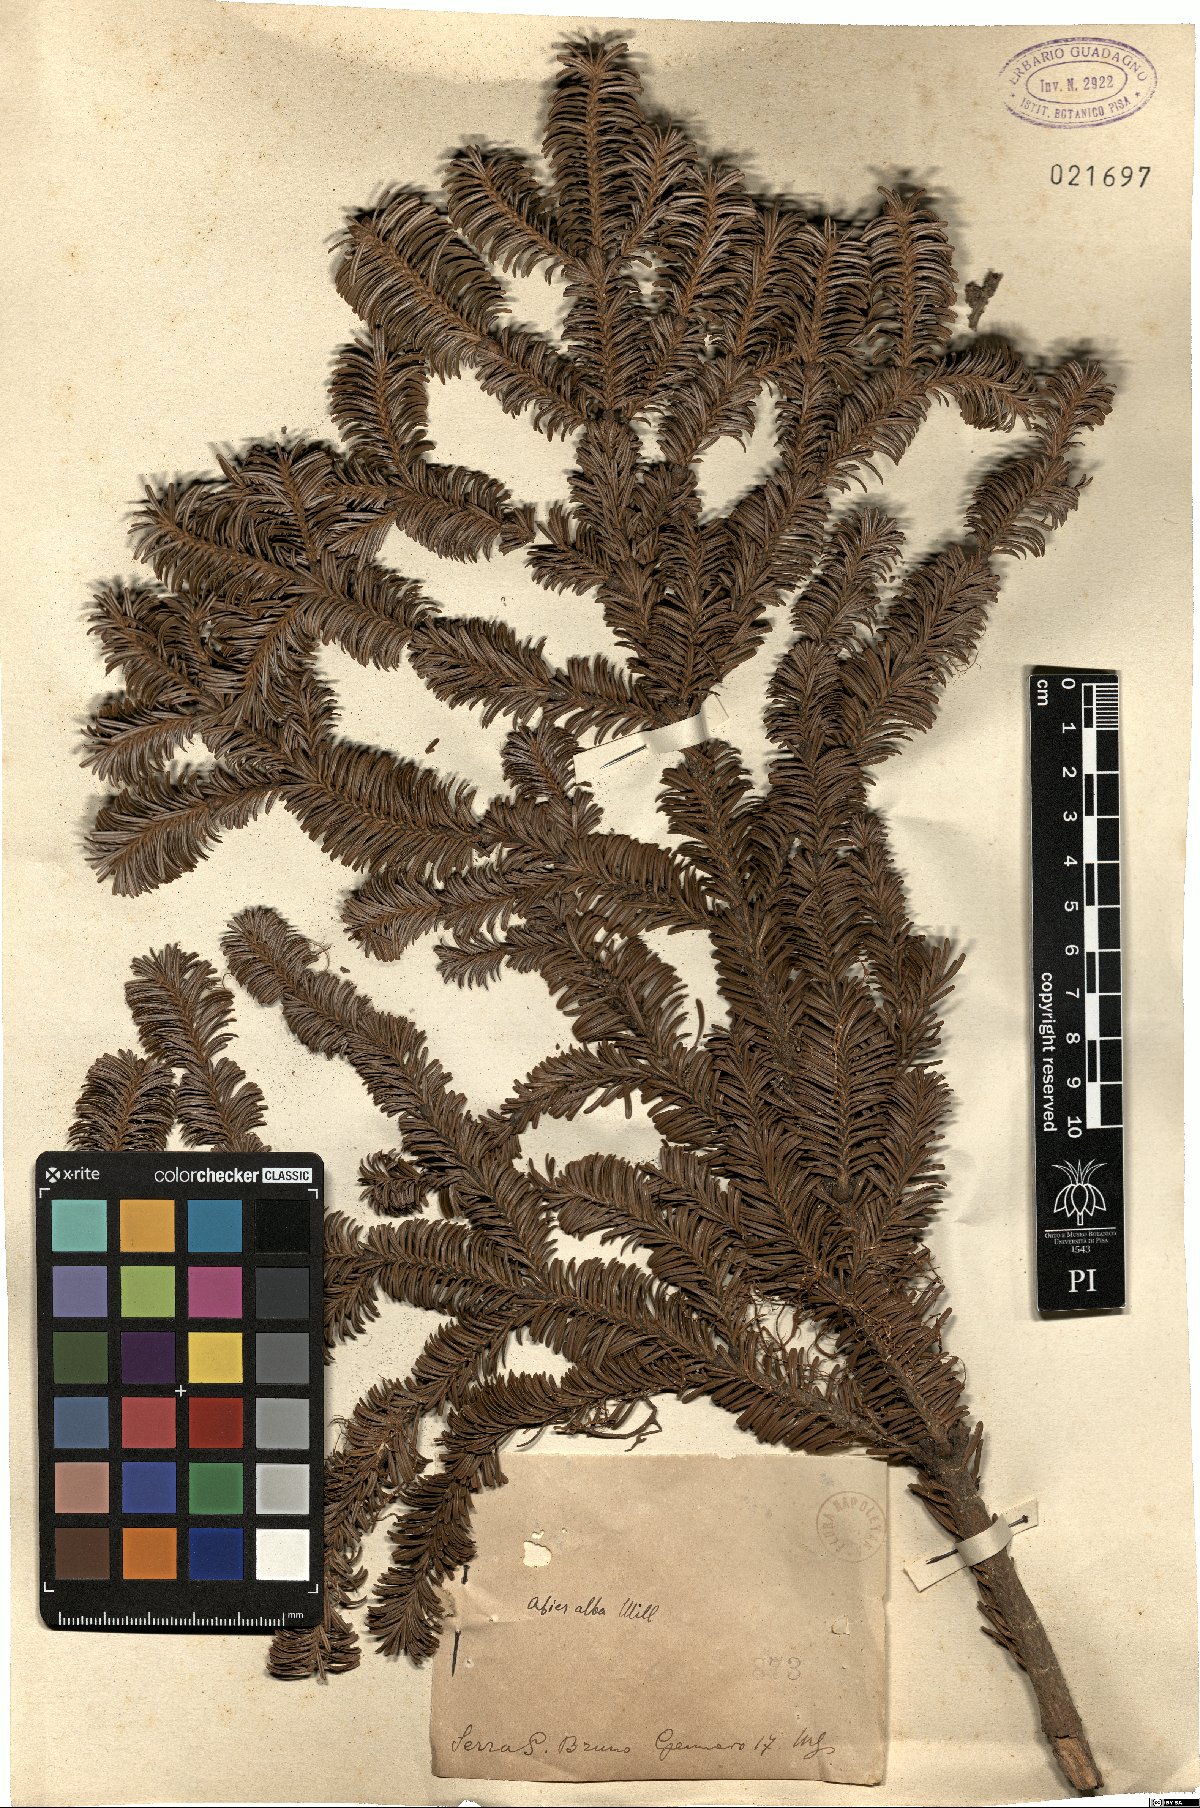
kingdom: Plantae
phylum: Tracheophyta
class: Pinopsida
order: Pinales
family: Pinaceae
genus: Abies
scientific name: Abies alba
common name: Silver fir
